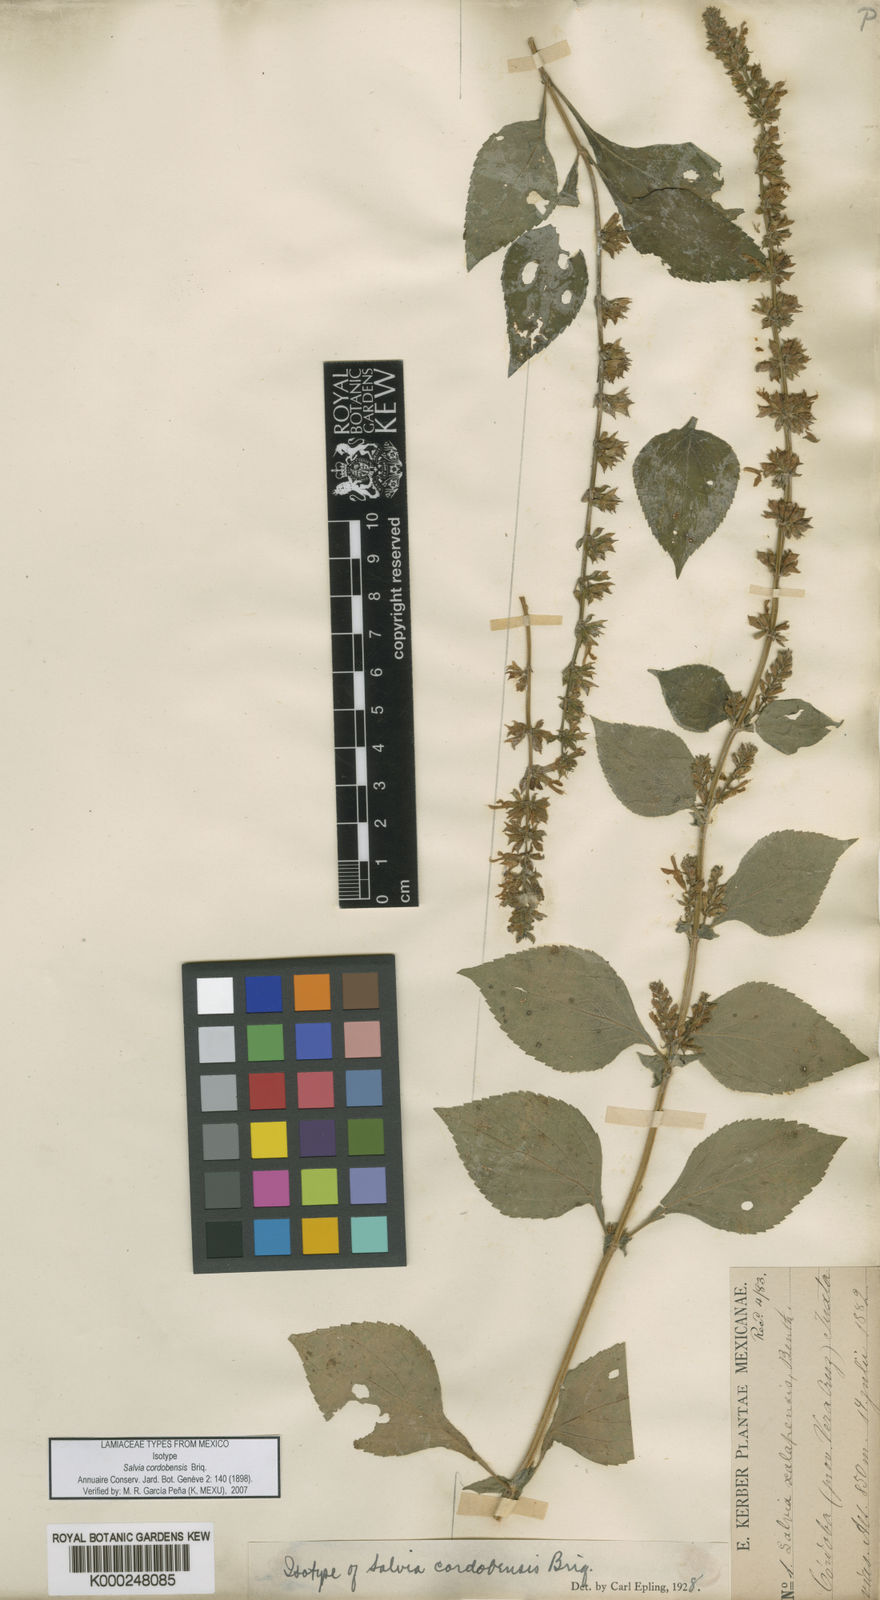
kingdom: Plantae
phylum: Tracheophyta
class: Magnoliopsida
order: Lamiales
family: Lamiaceae
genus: Salvia
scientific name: Salvia xalapensis
